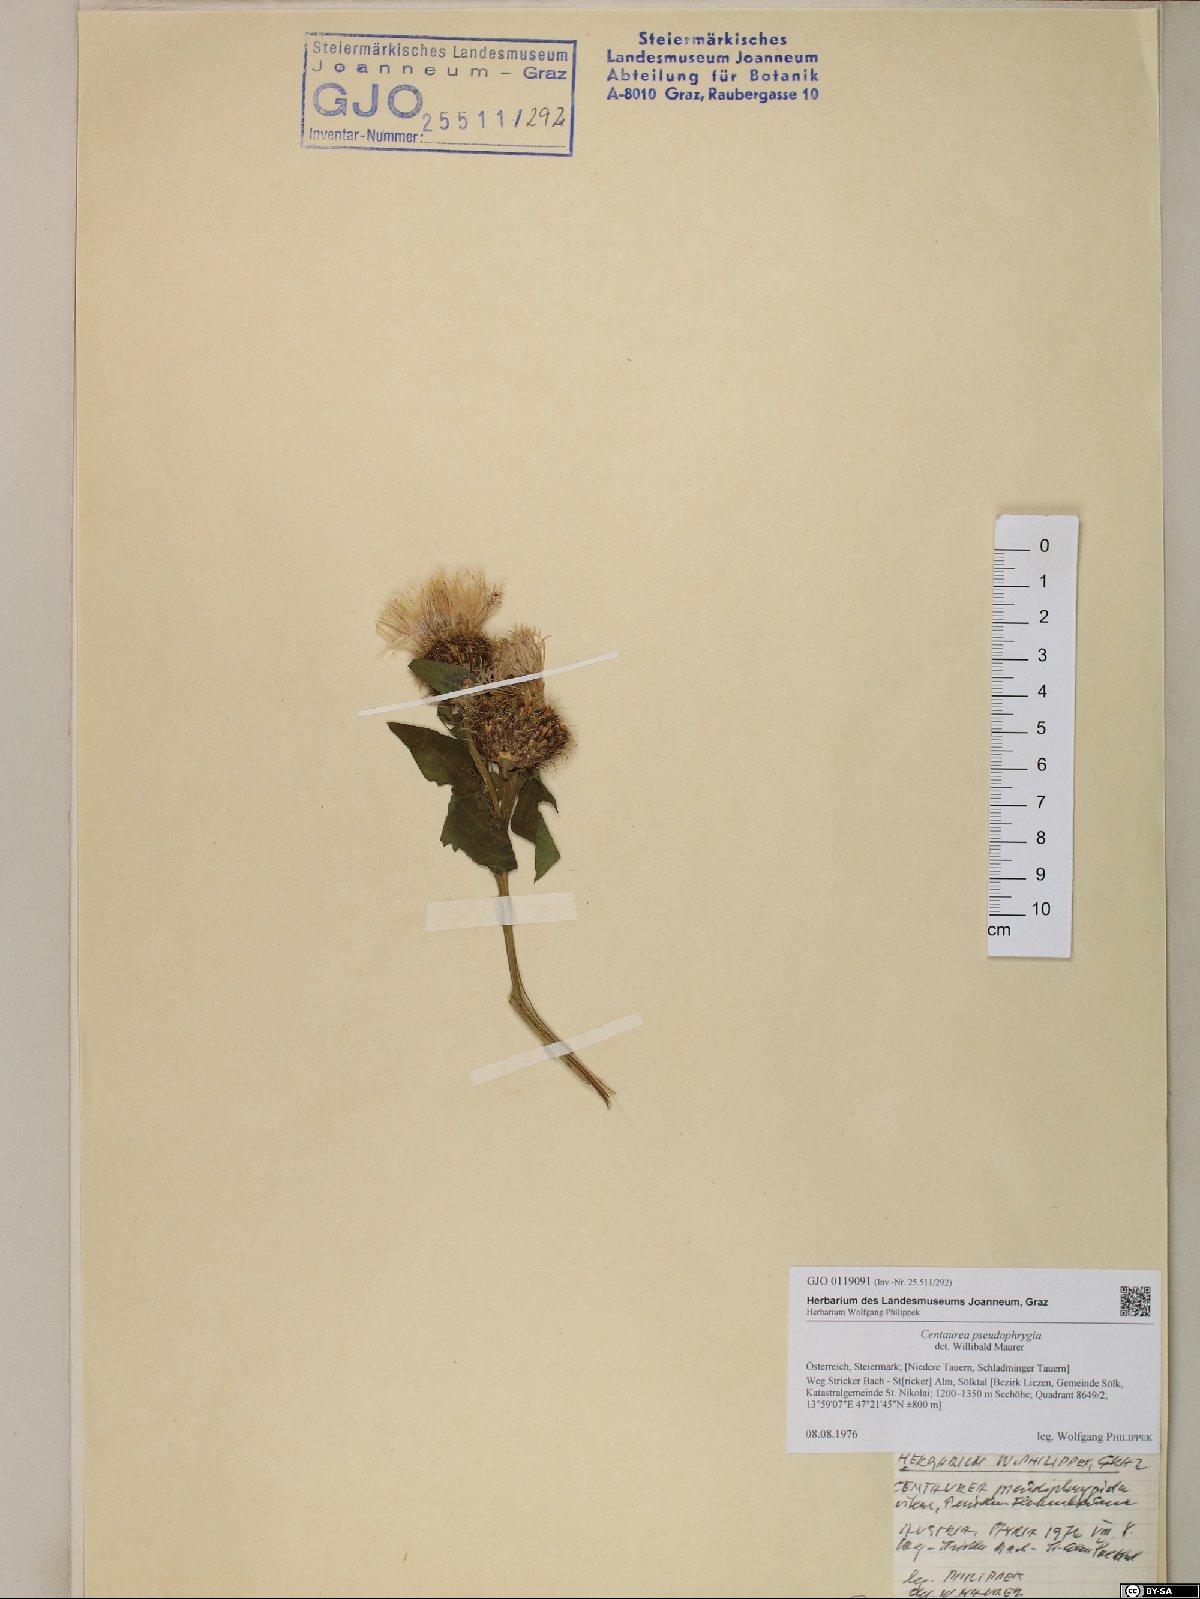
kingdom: Plantae
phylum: Tracheophyta
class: Magnoliopsida
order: Asterales
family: Asteraceae
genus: Centaurea
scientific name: Centaurea pseudophrygia
